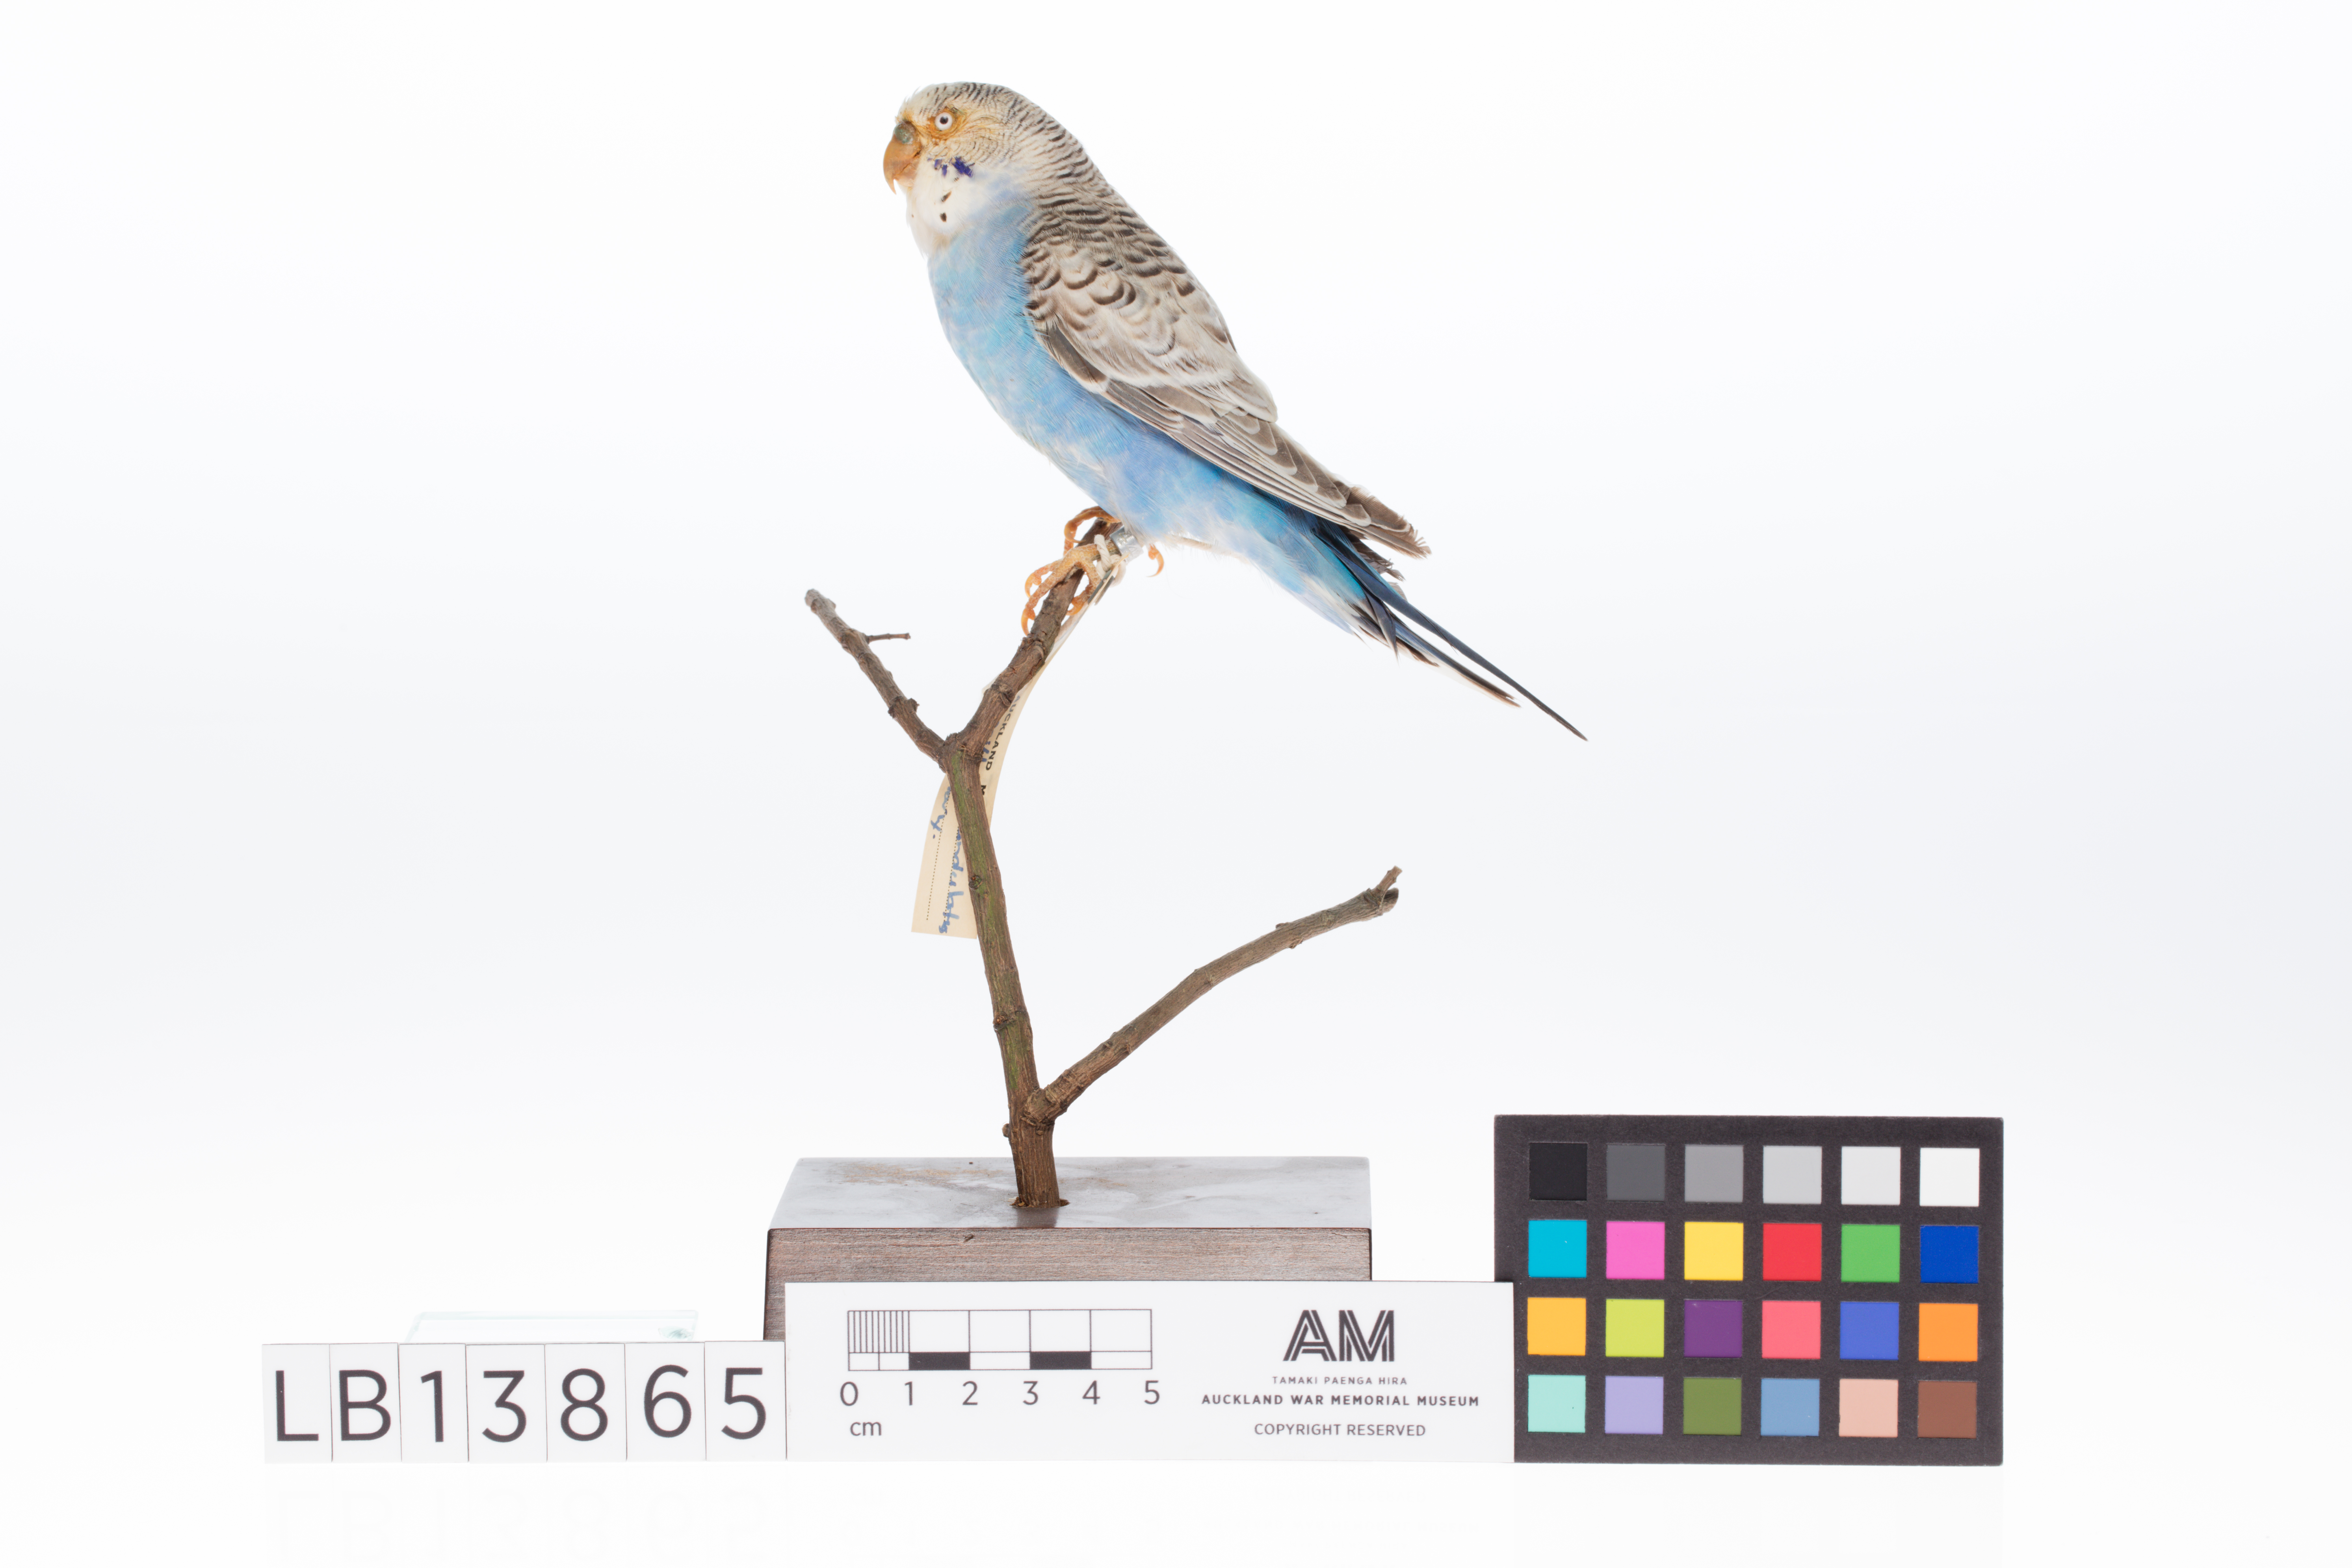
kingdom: Animalia
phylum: Chordata
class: Aves
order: Psittaciformes
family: Psittacidae
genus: Melopsittacus
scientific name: Melopsittacus undulatus
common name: Budgerigar
